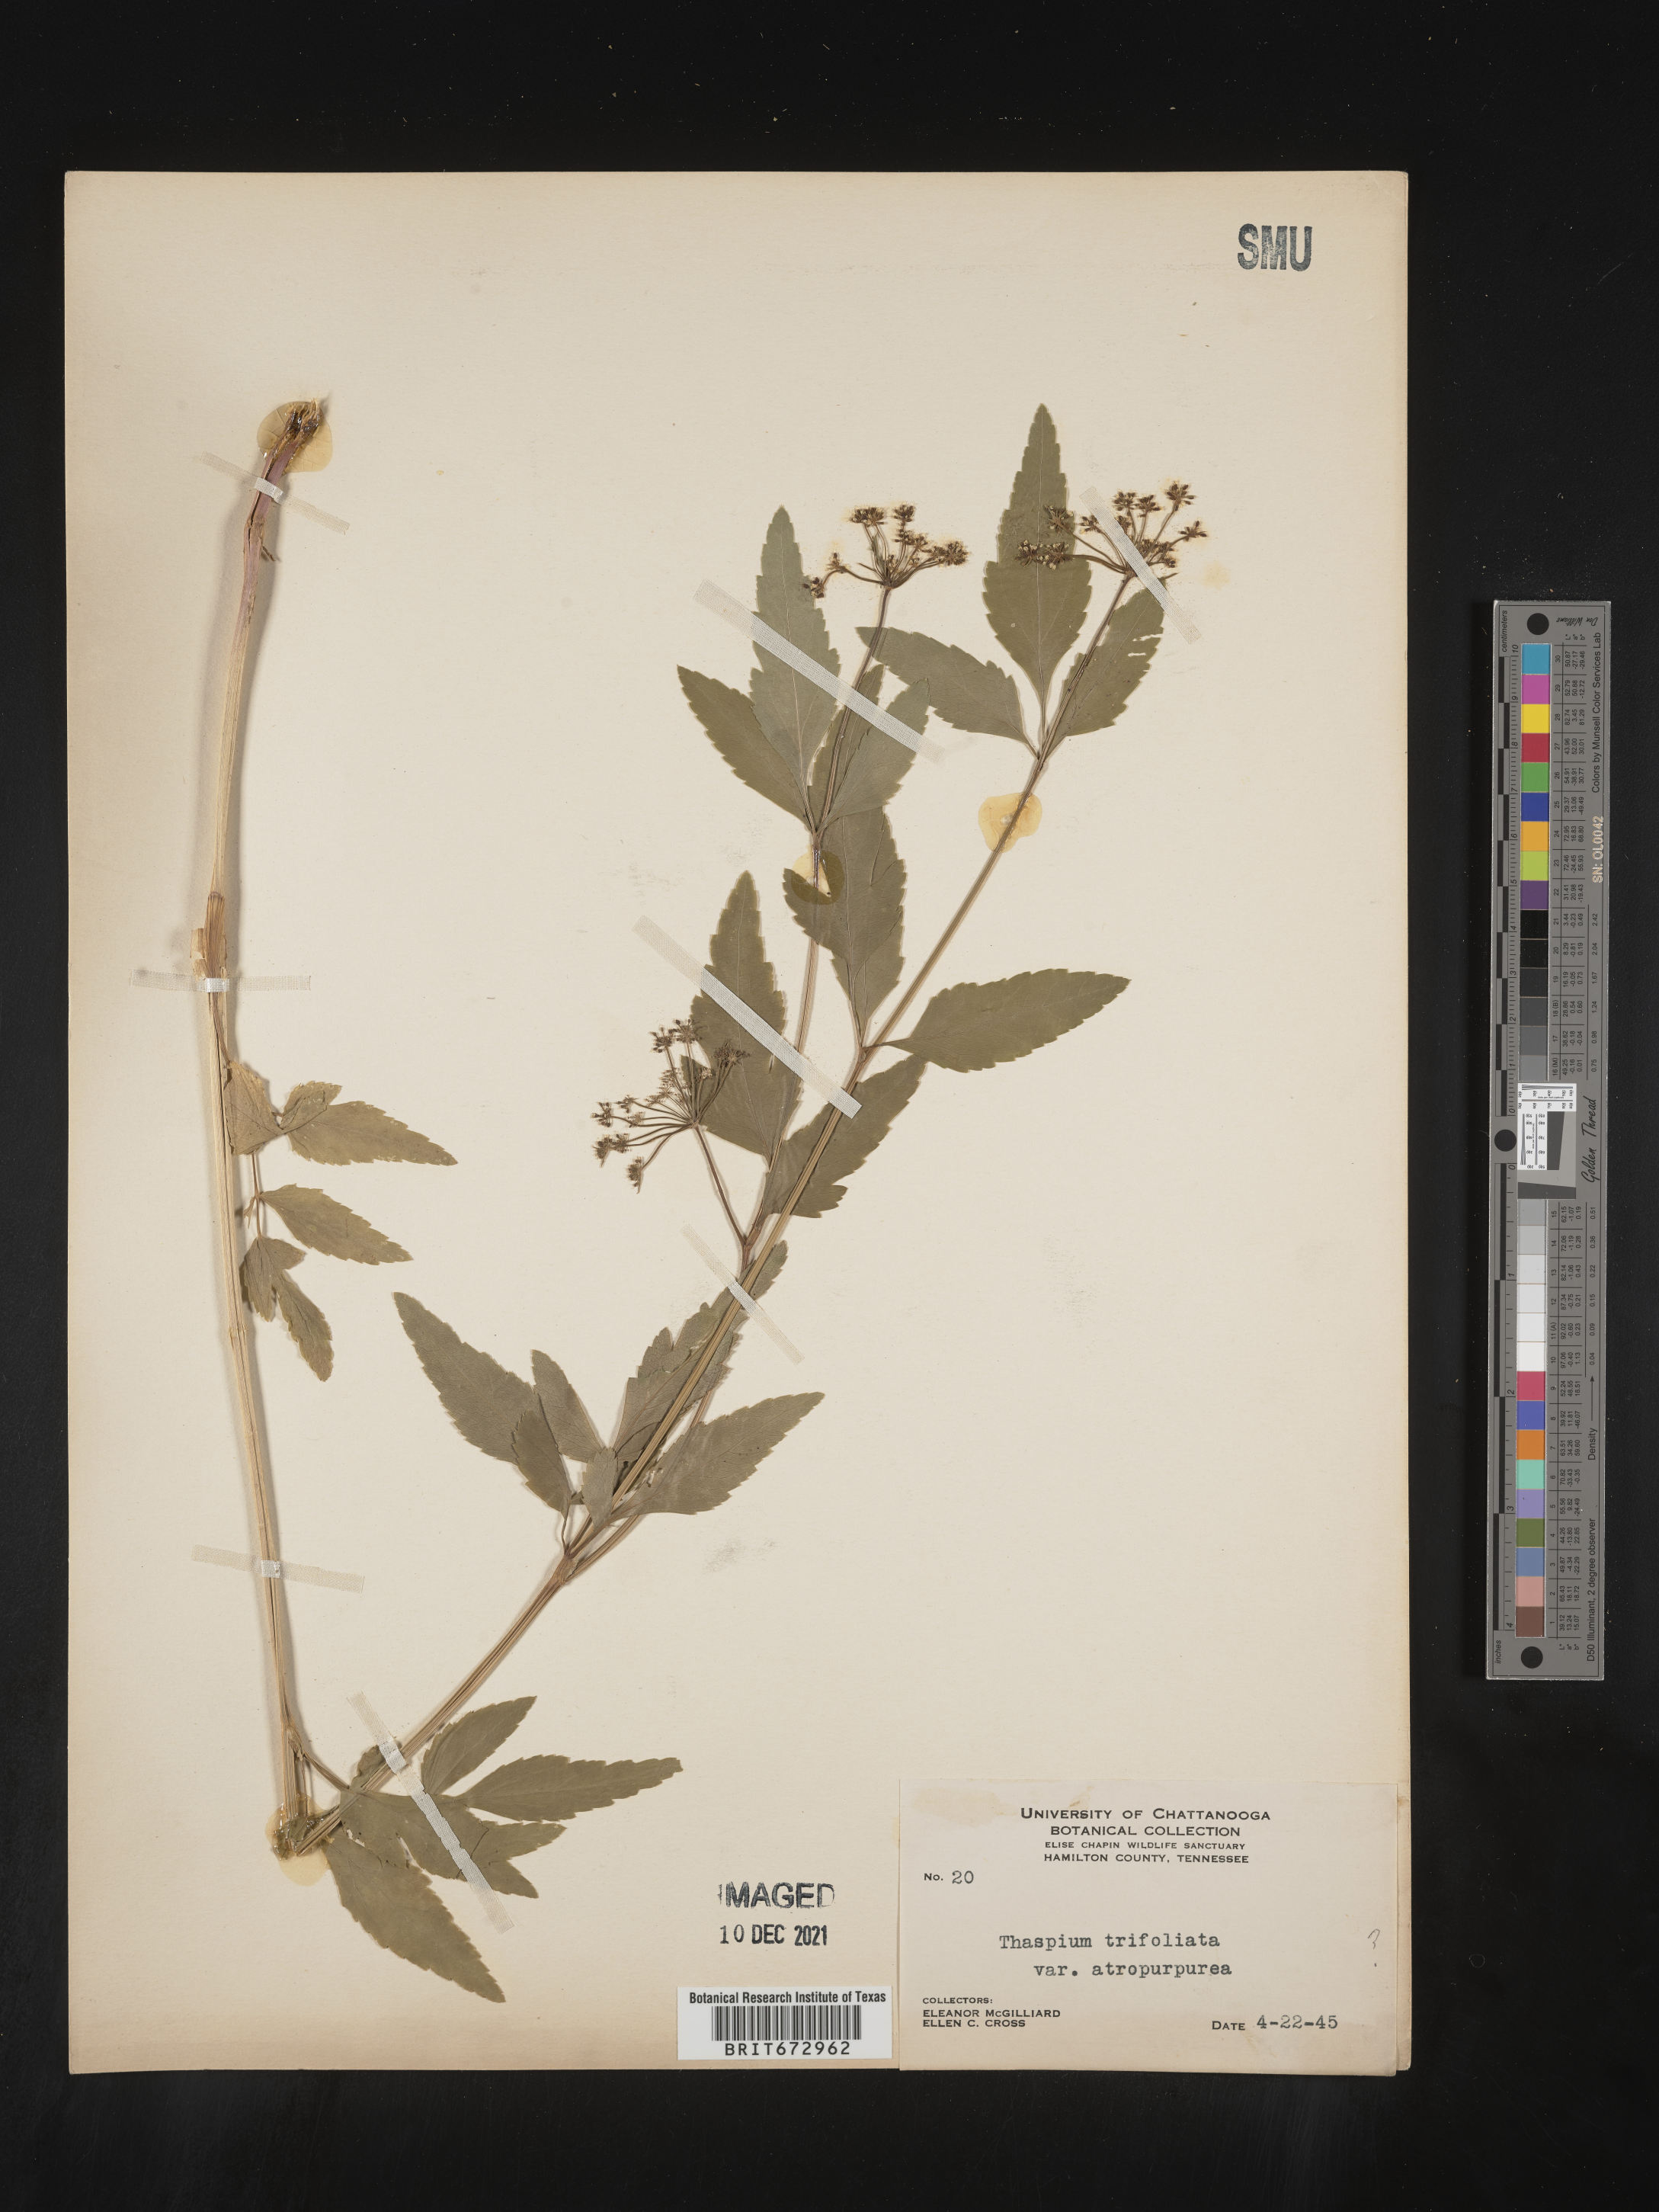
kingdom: Plantae
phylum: Tracheophyta
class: Magnoliopsida
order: Apiales
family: Apiaceae
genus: Thaspium
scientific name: Thaspium
